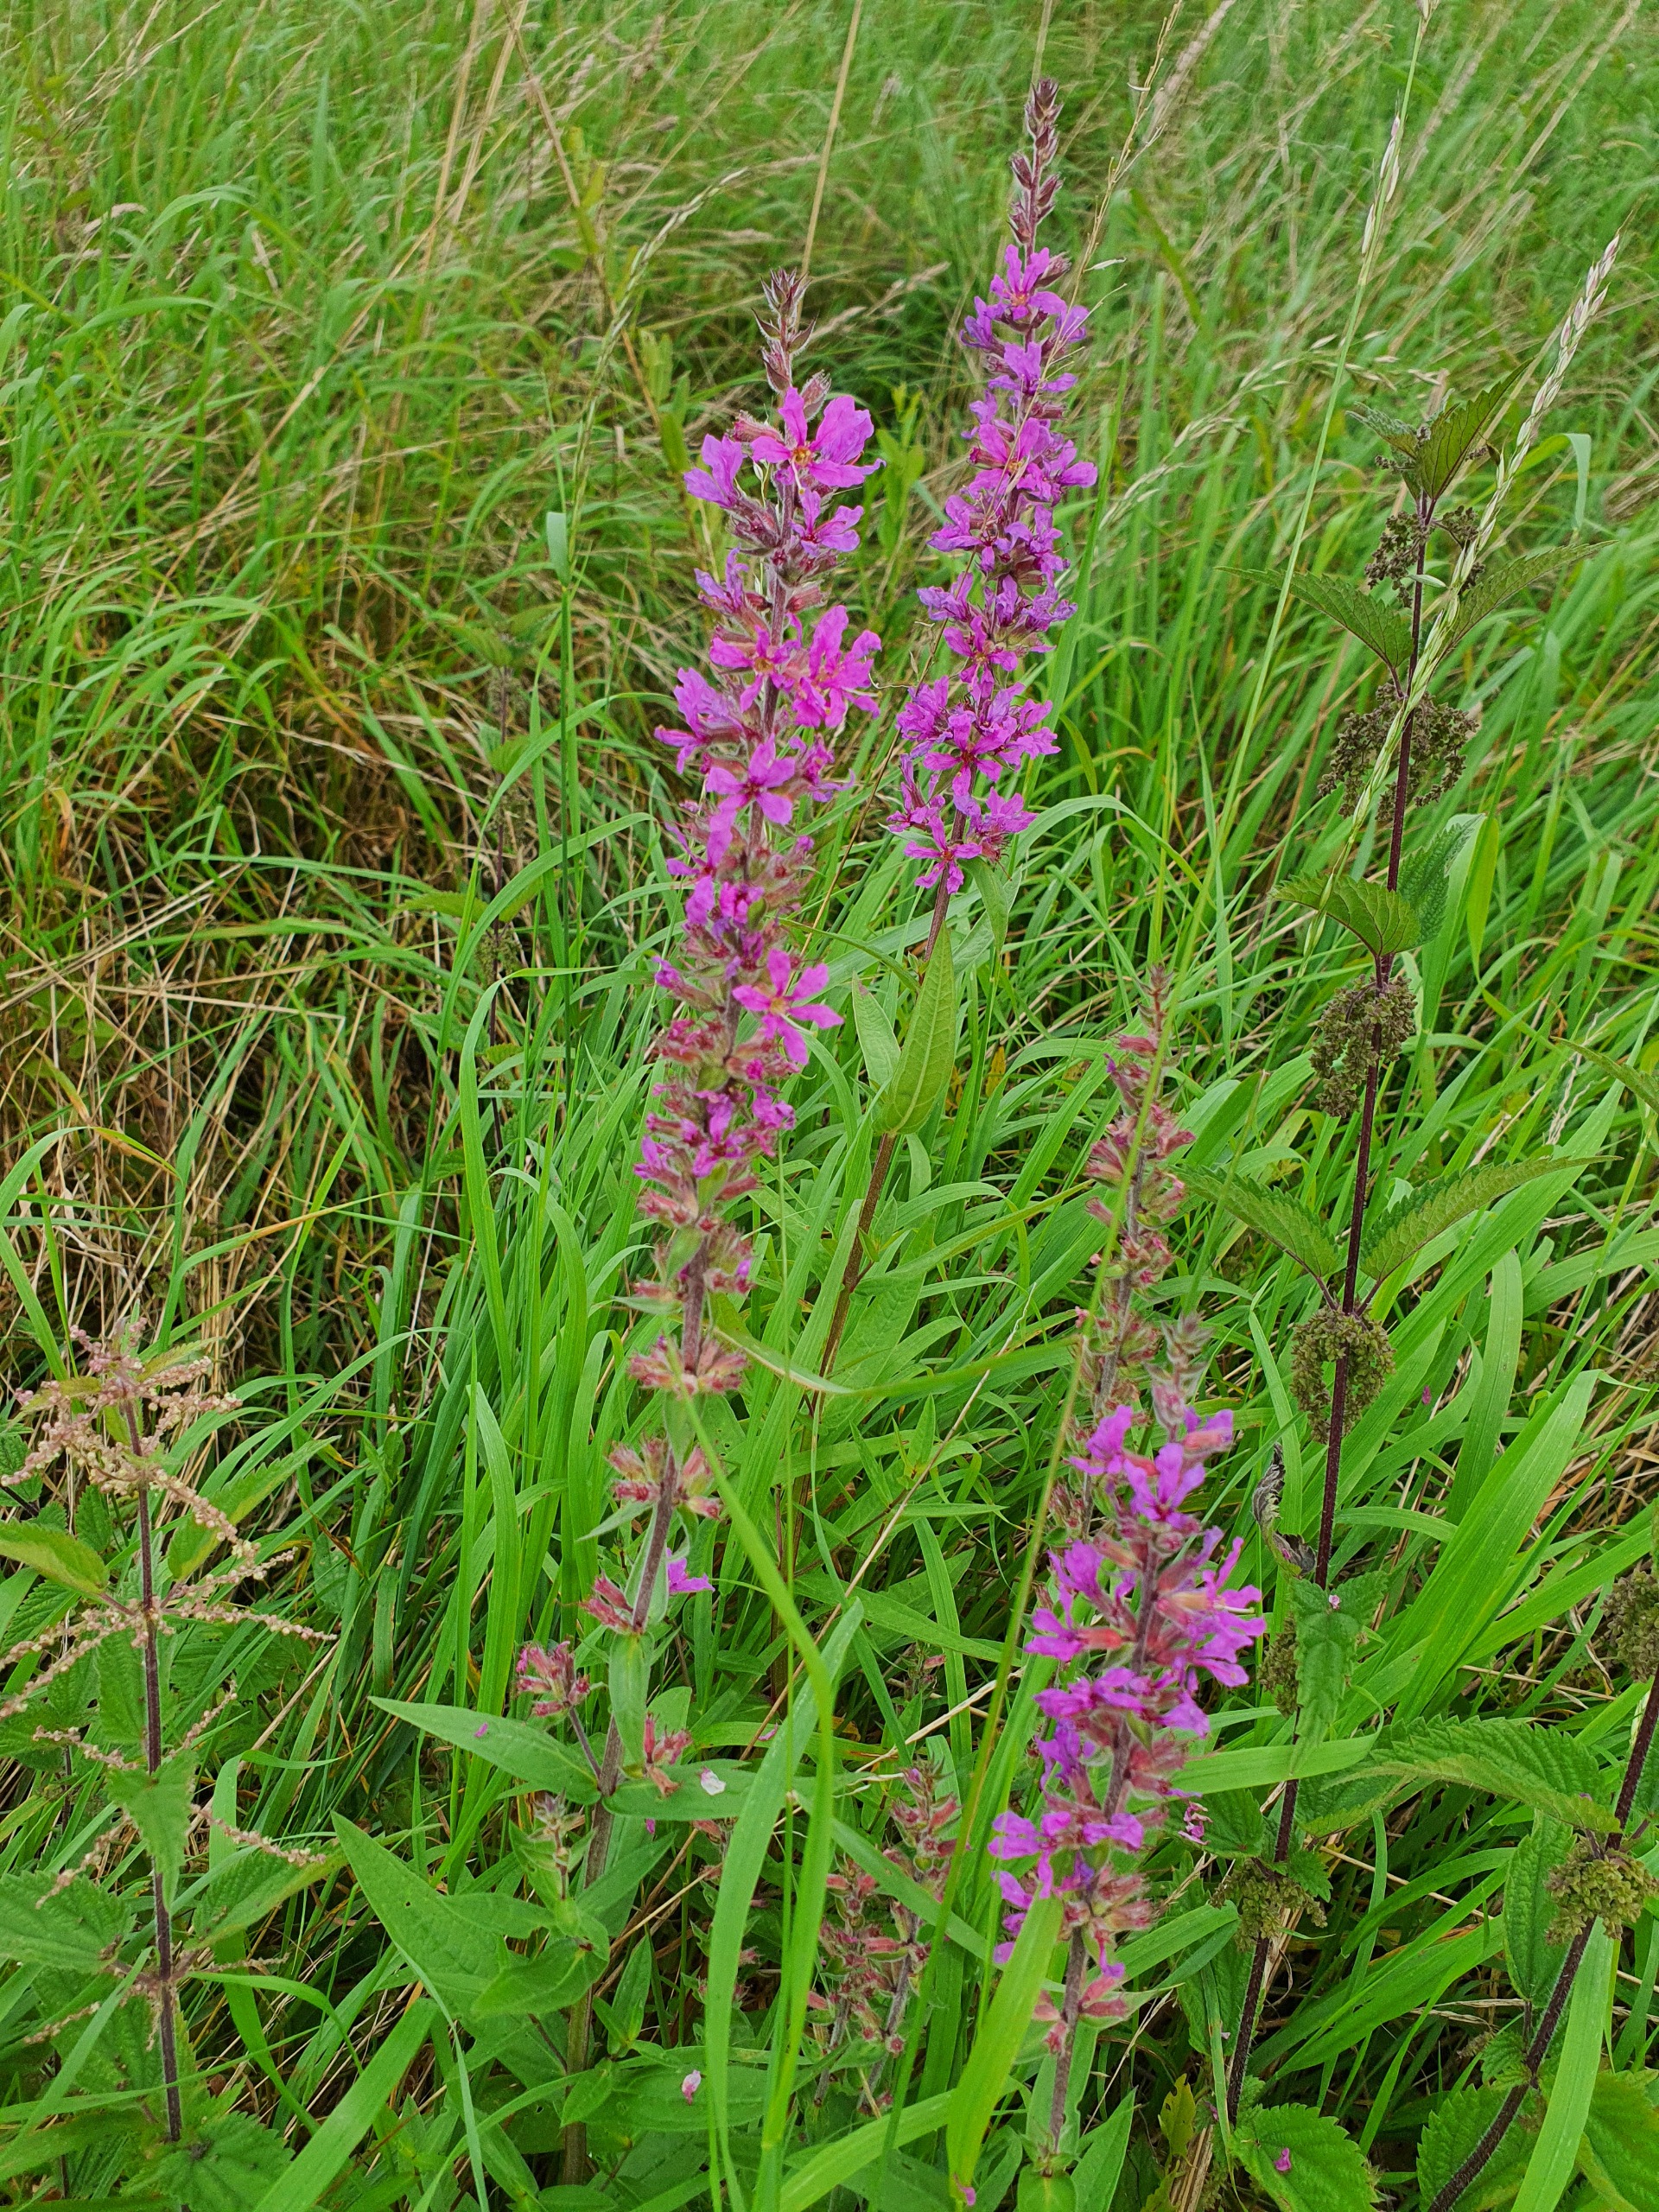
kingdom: Plantae
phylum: Tracheophyta
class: Magnoliopsida
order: Myrtales
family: Lythraceae
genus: Lythrum
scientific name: Lythrum salicaria
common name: Kattehale
